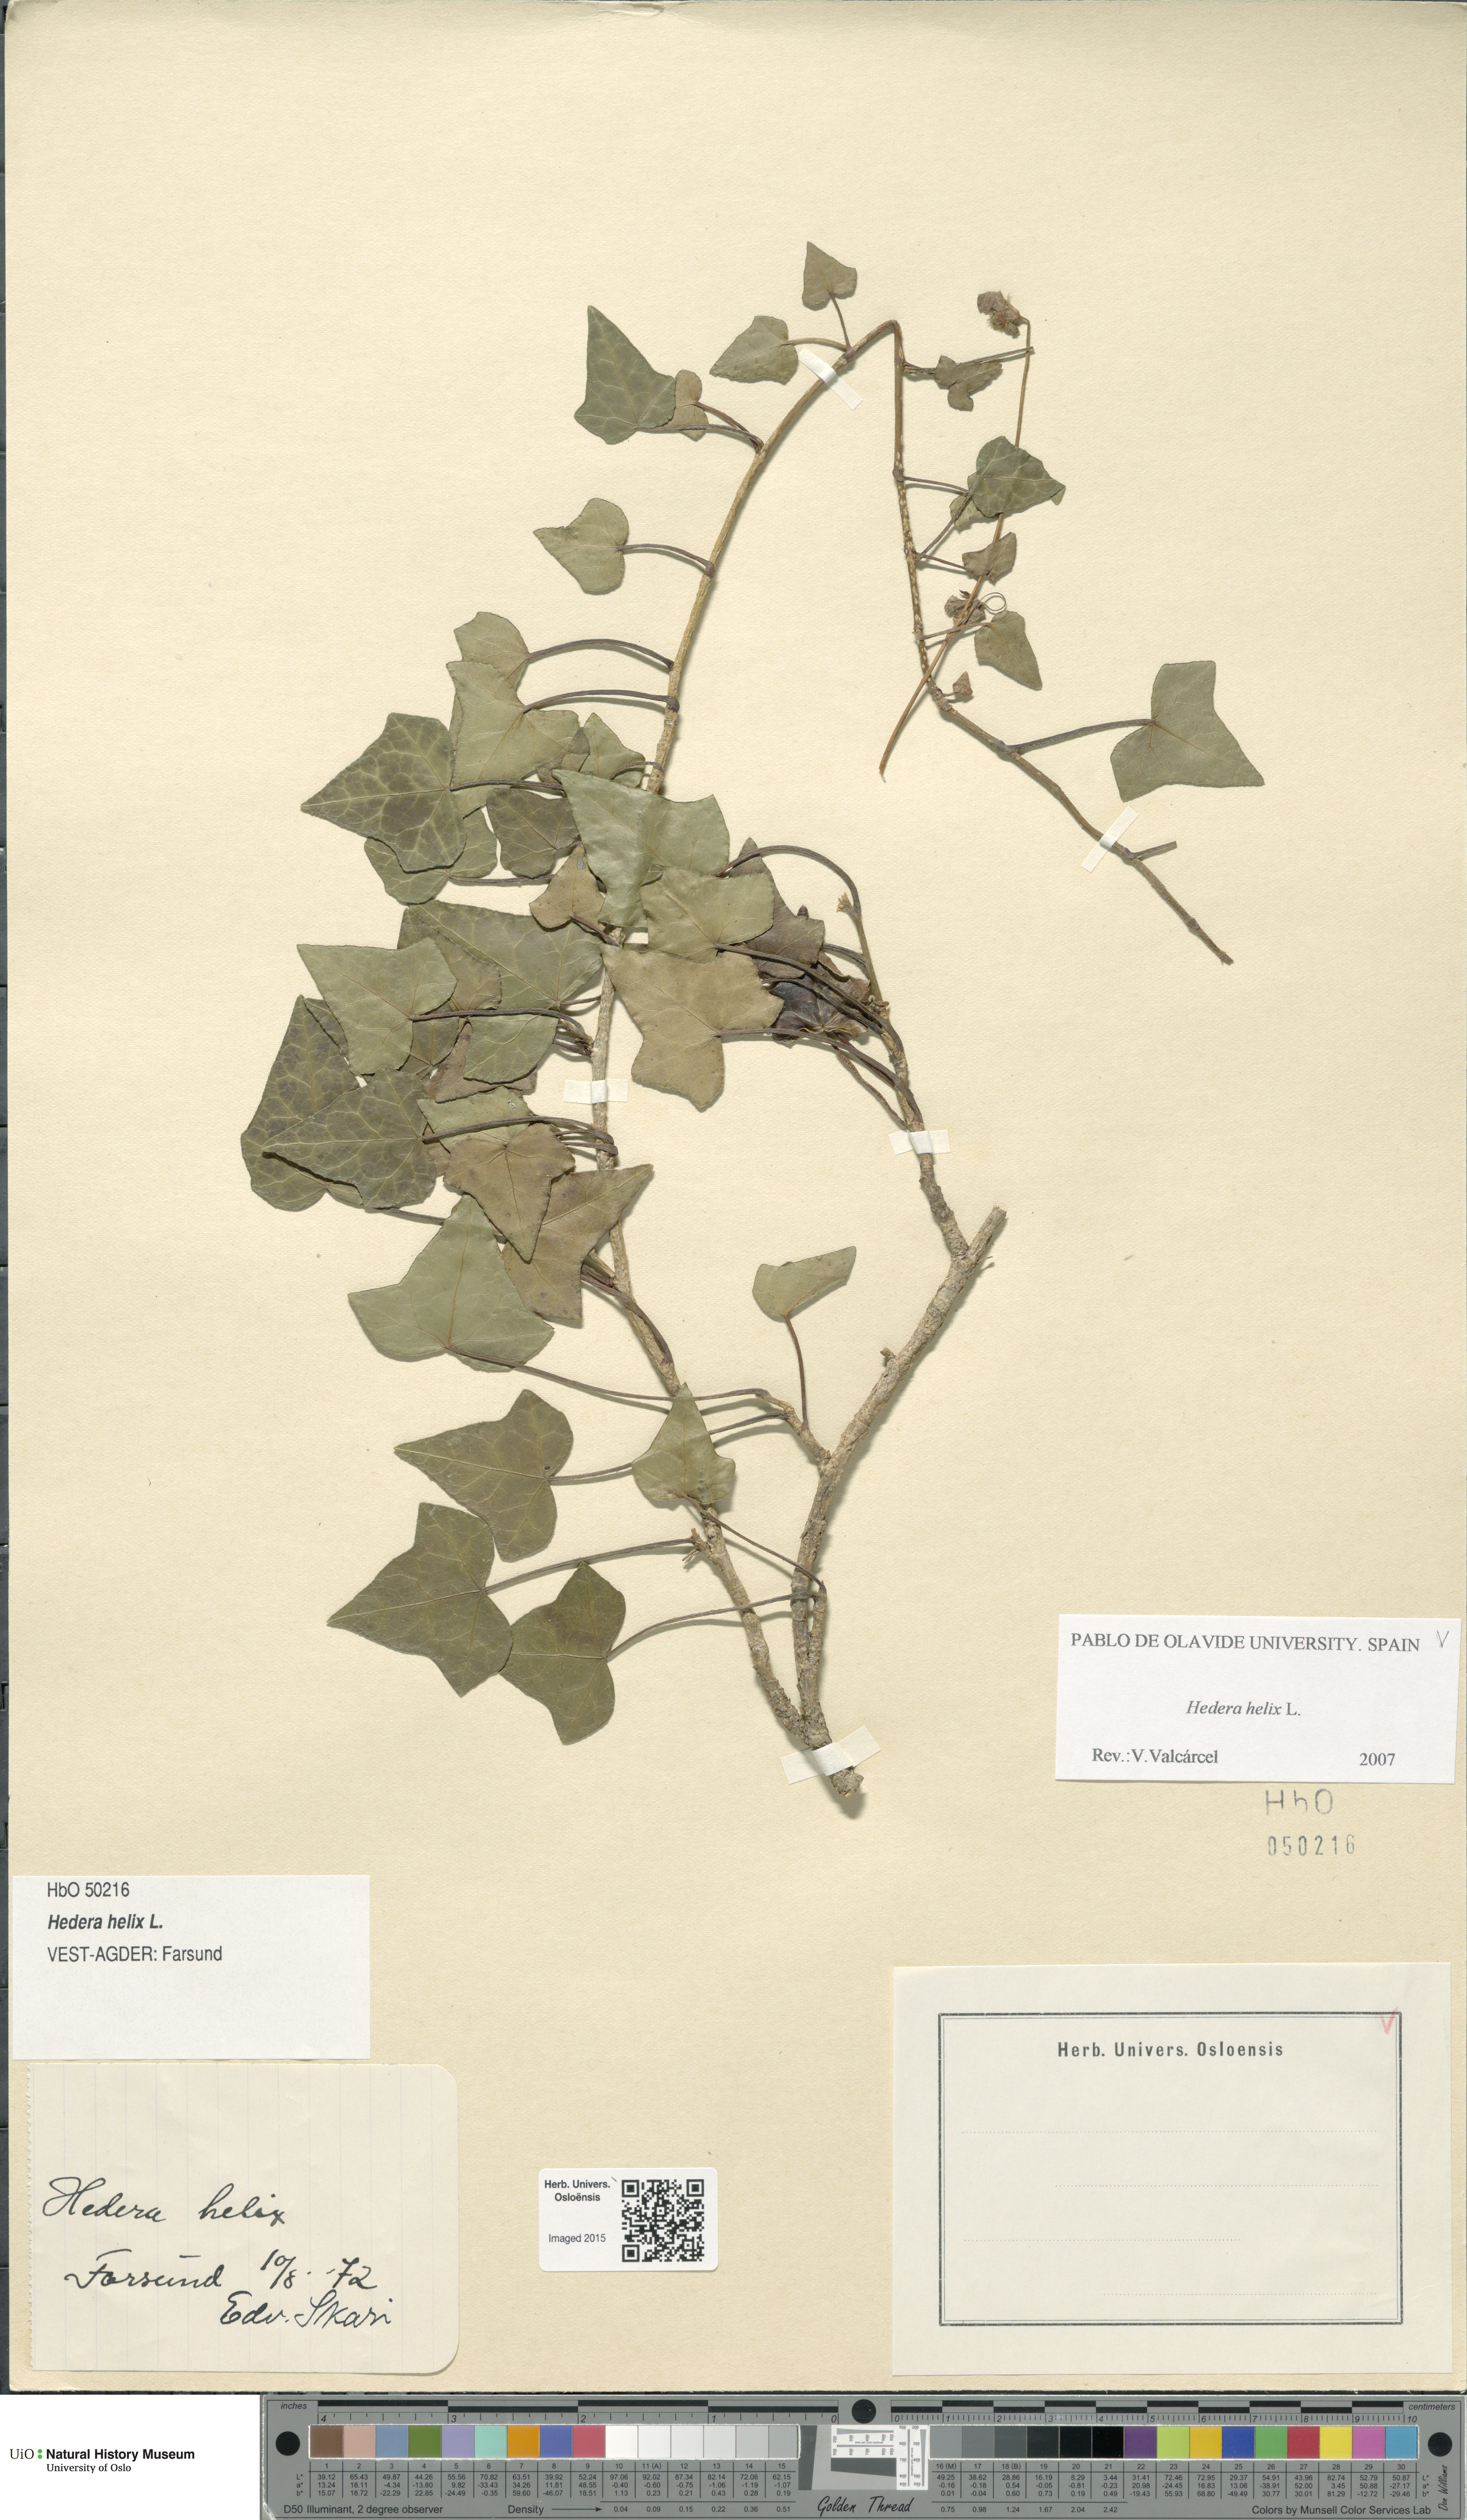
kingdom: Plantae
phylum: Tracheophyta
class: Magnoliopsida
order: Apiales
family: Araliaceae
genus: Hedera
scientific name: Hedera helix
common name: Ivy
